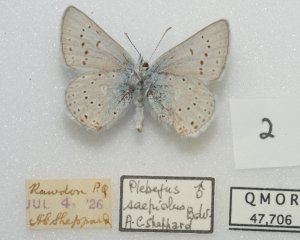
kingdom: Animalia
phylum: Arthropoda
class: Insecta
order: Lepidoptera
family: Lycaenidae
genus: Plebejus
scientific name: Plebejus saepiolus
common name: Greenish Blue
